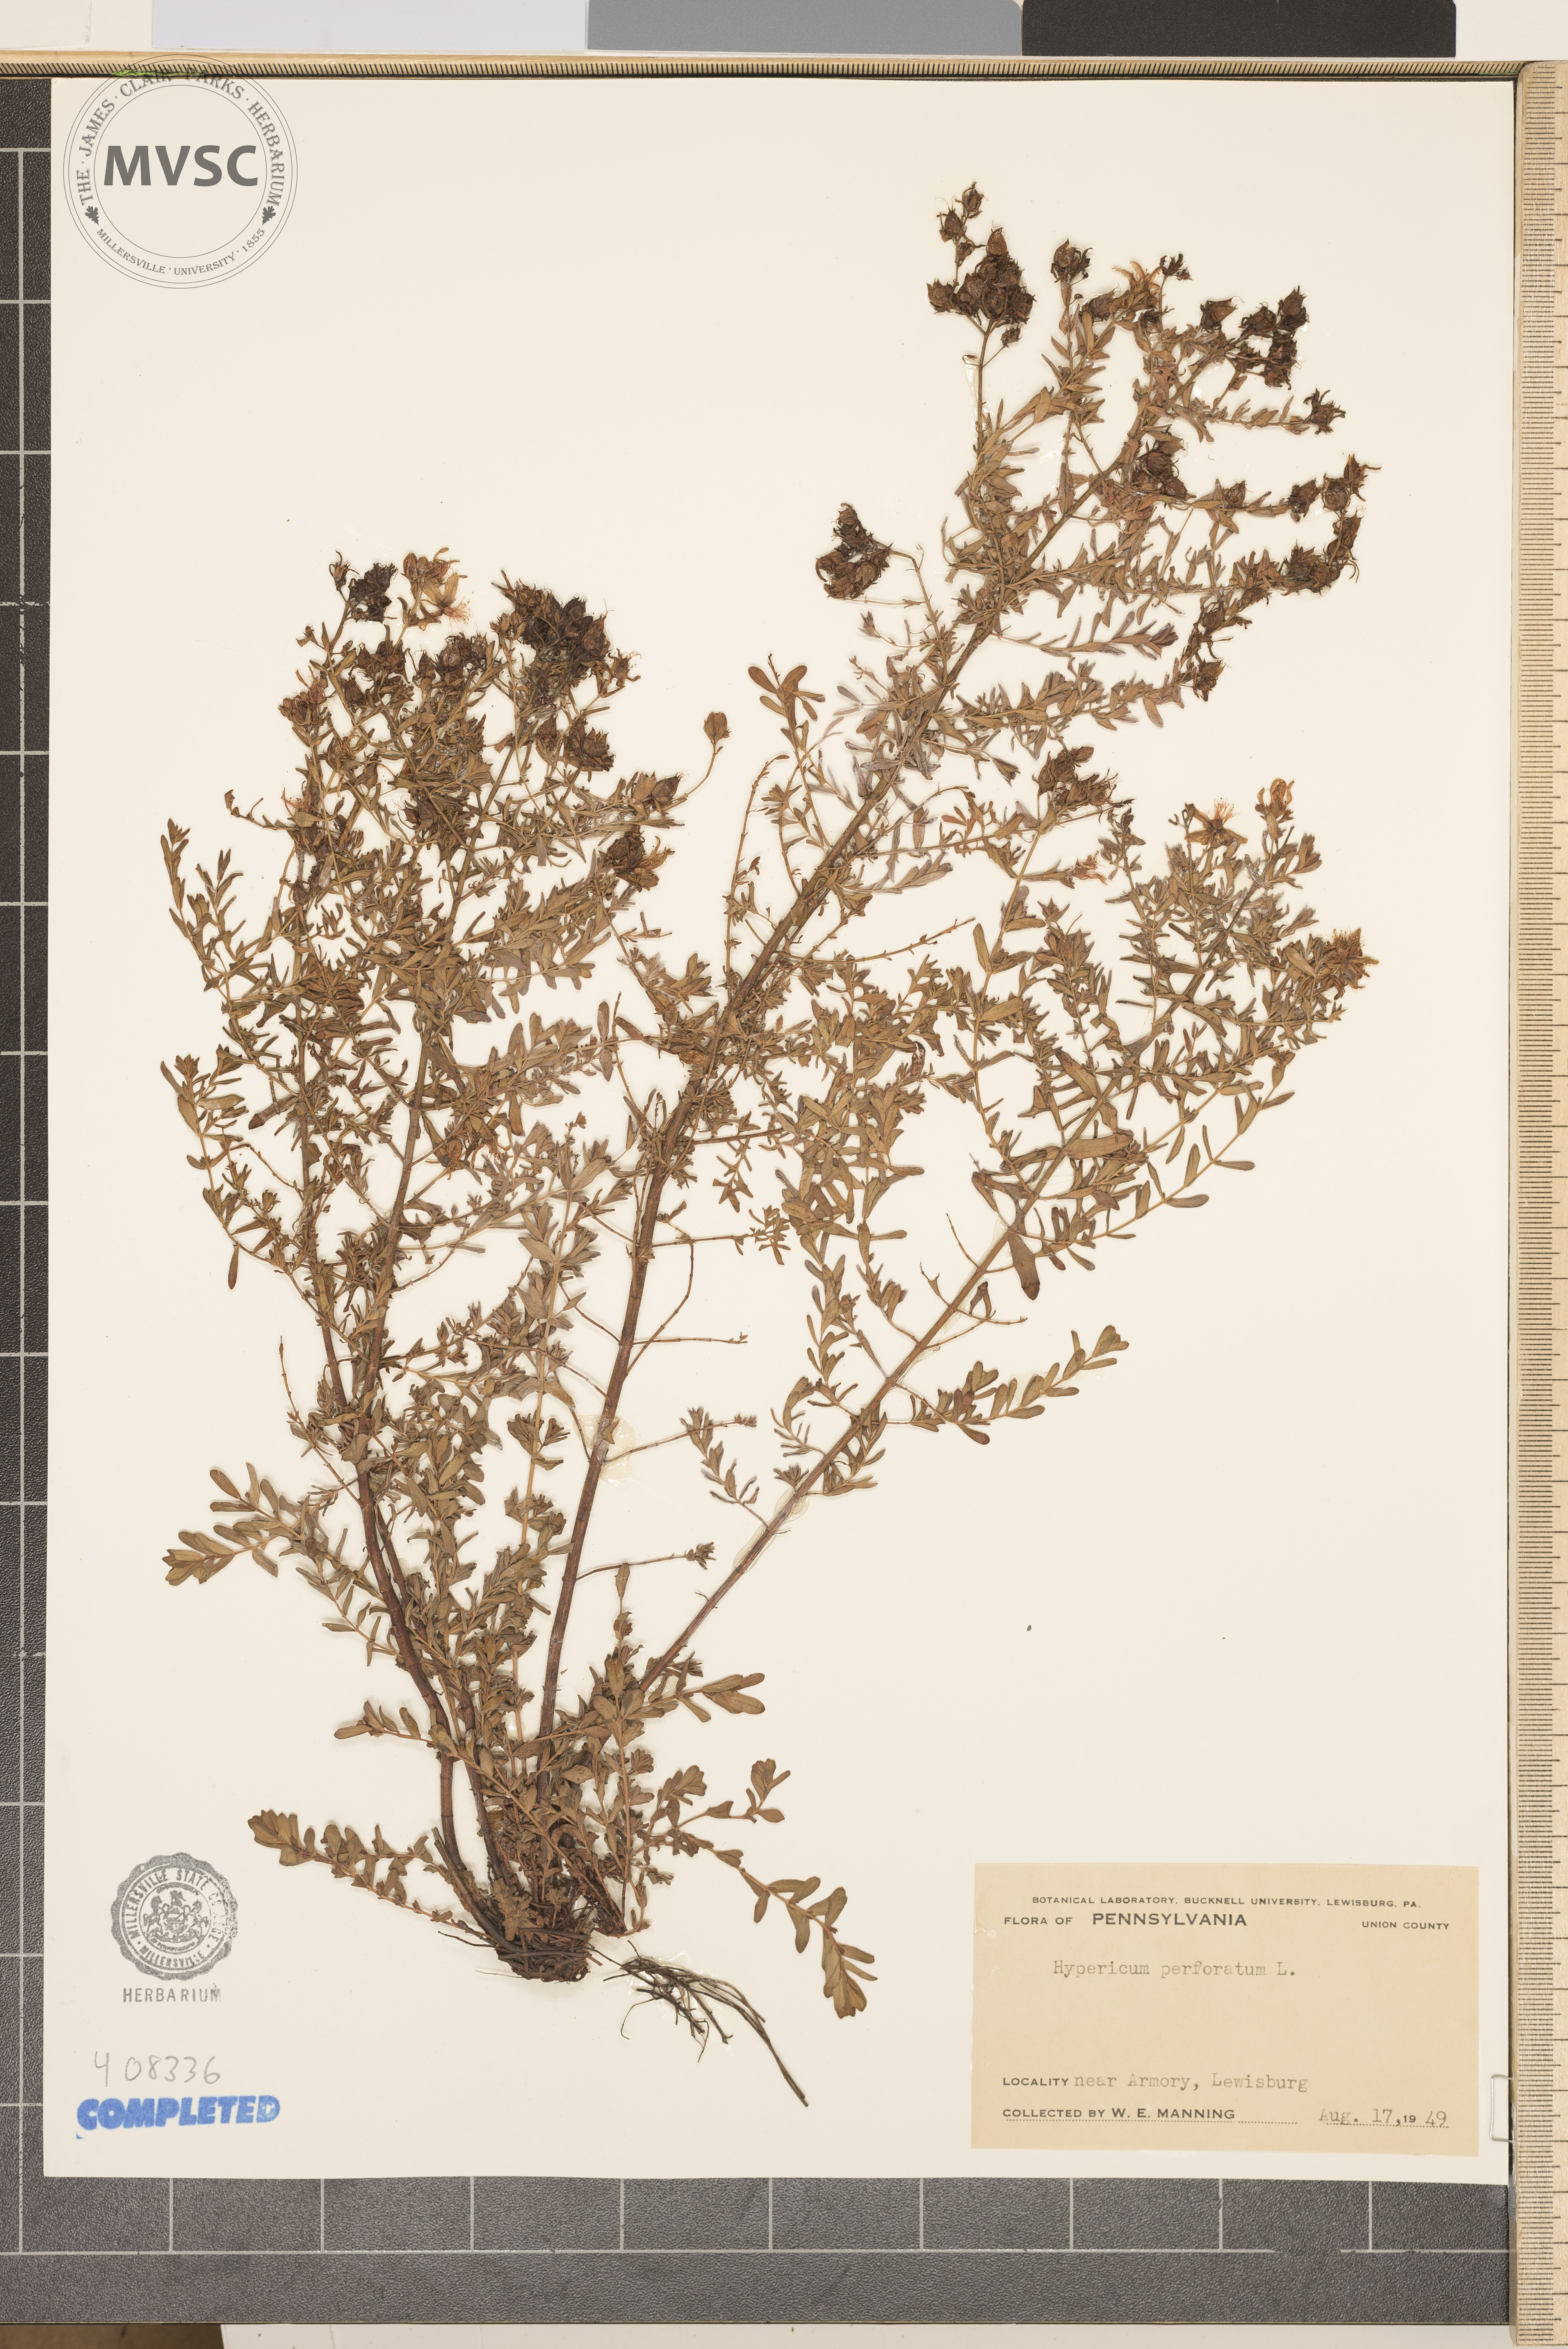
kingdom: Plantae
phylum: Tracheophyta
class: Magnoliopsida
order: Malpighiales
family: Hypericaceae
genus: Hypericum
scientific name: Hypericum perforatum
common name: St. John's-wort
